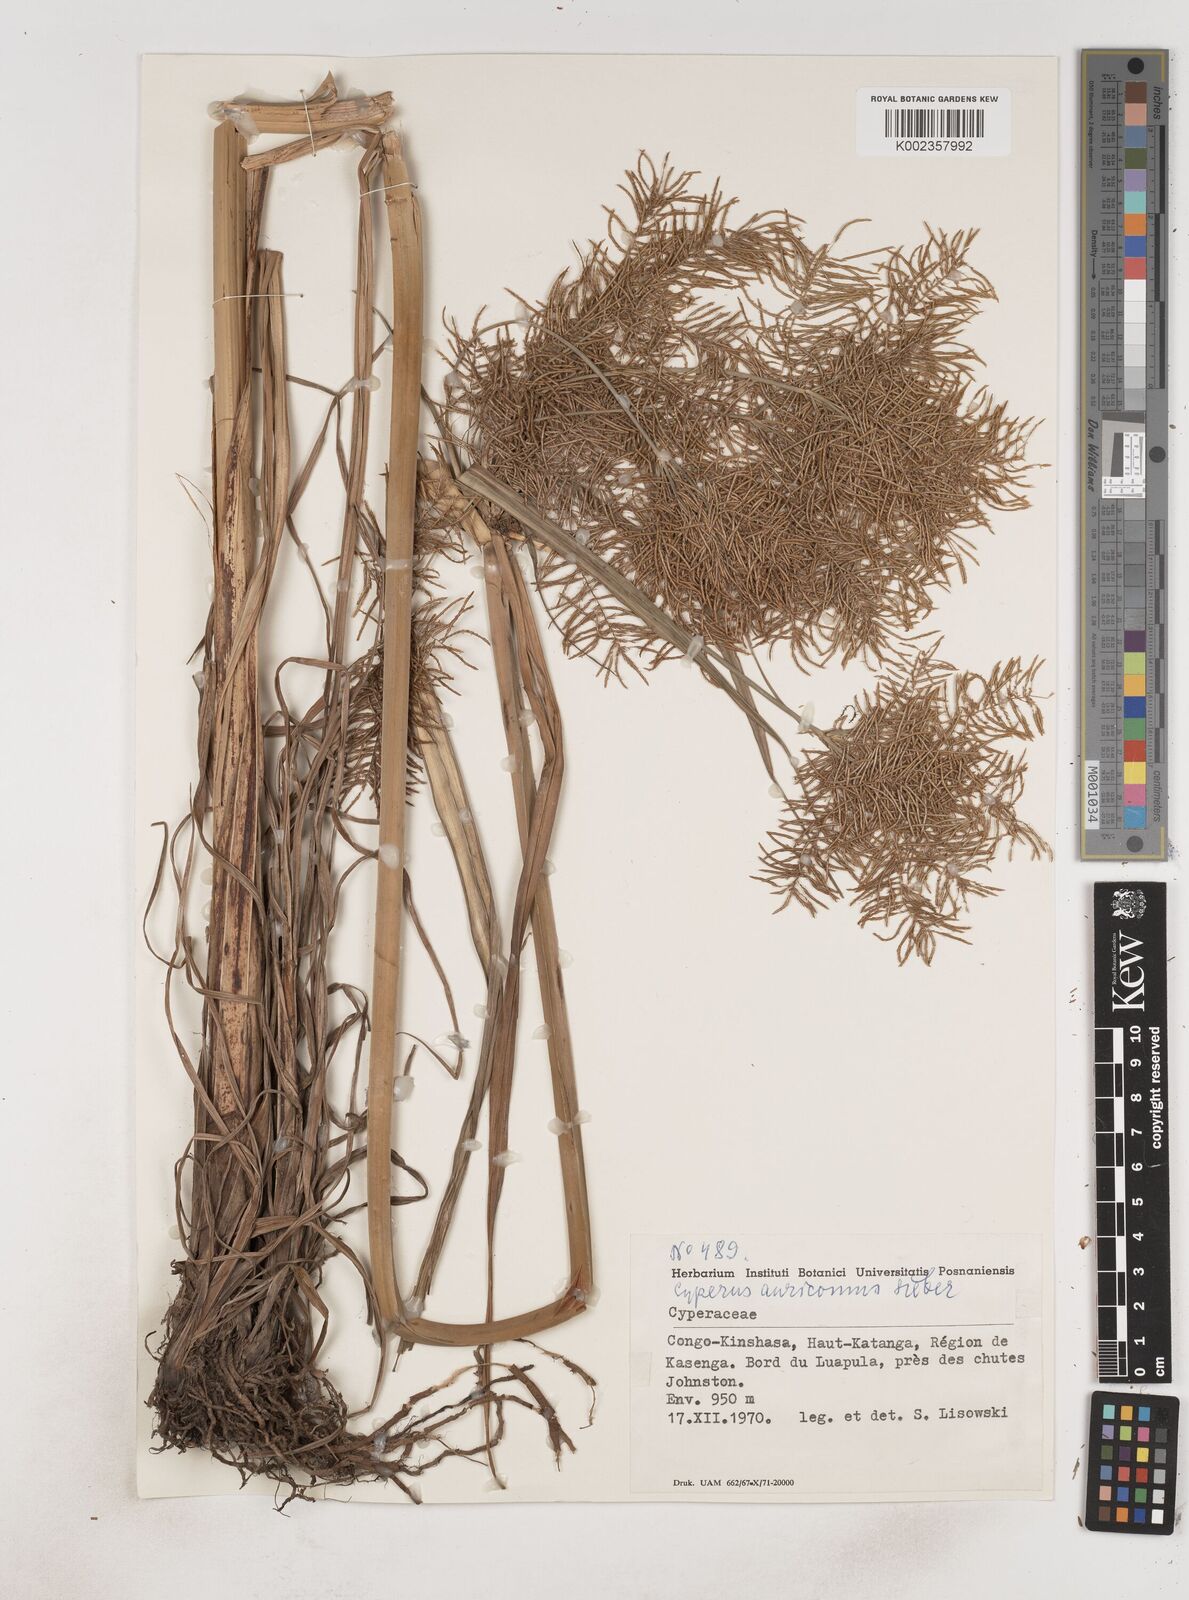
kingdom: Plantae
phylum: Tracheophyta
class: Liliopsida
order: Poales
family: Cyperaceae
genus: Cyperus
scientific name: Cyperus digitatus
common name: Finger flatsedge
